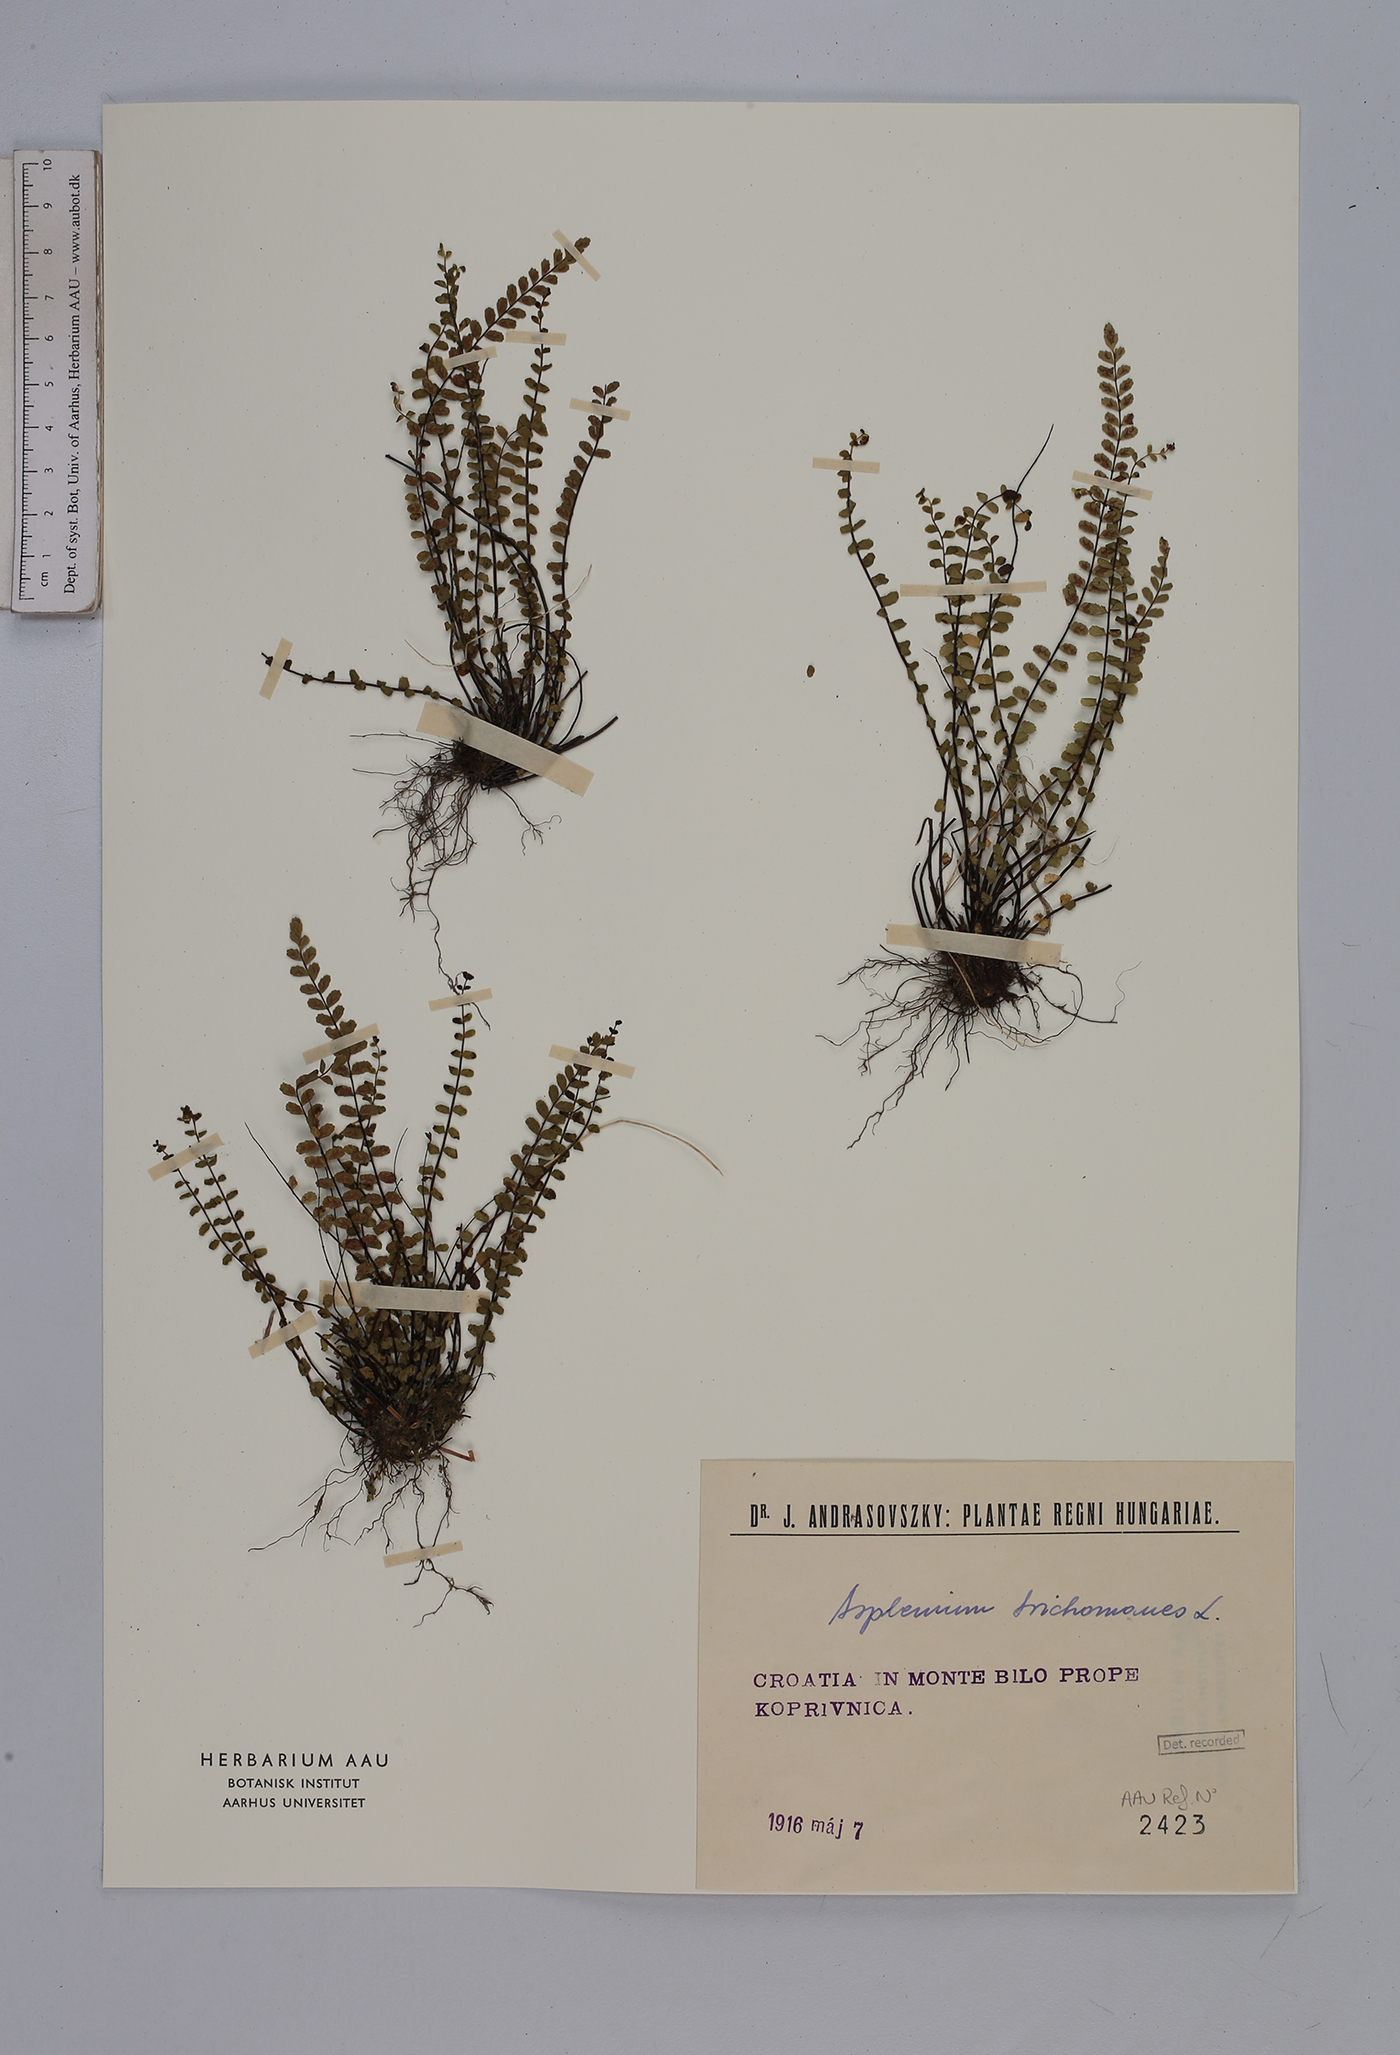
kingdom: Plantae
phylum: Tracheophyta
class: Polypodiopsida
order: Polypodiales
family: Aspleniaceae
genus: Asplenium
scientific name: Asplenium trichomanes
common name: Maidenhair spleenwort
